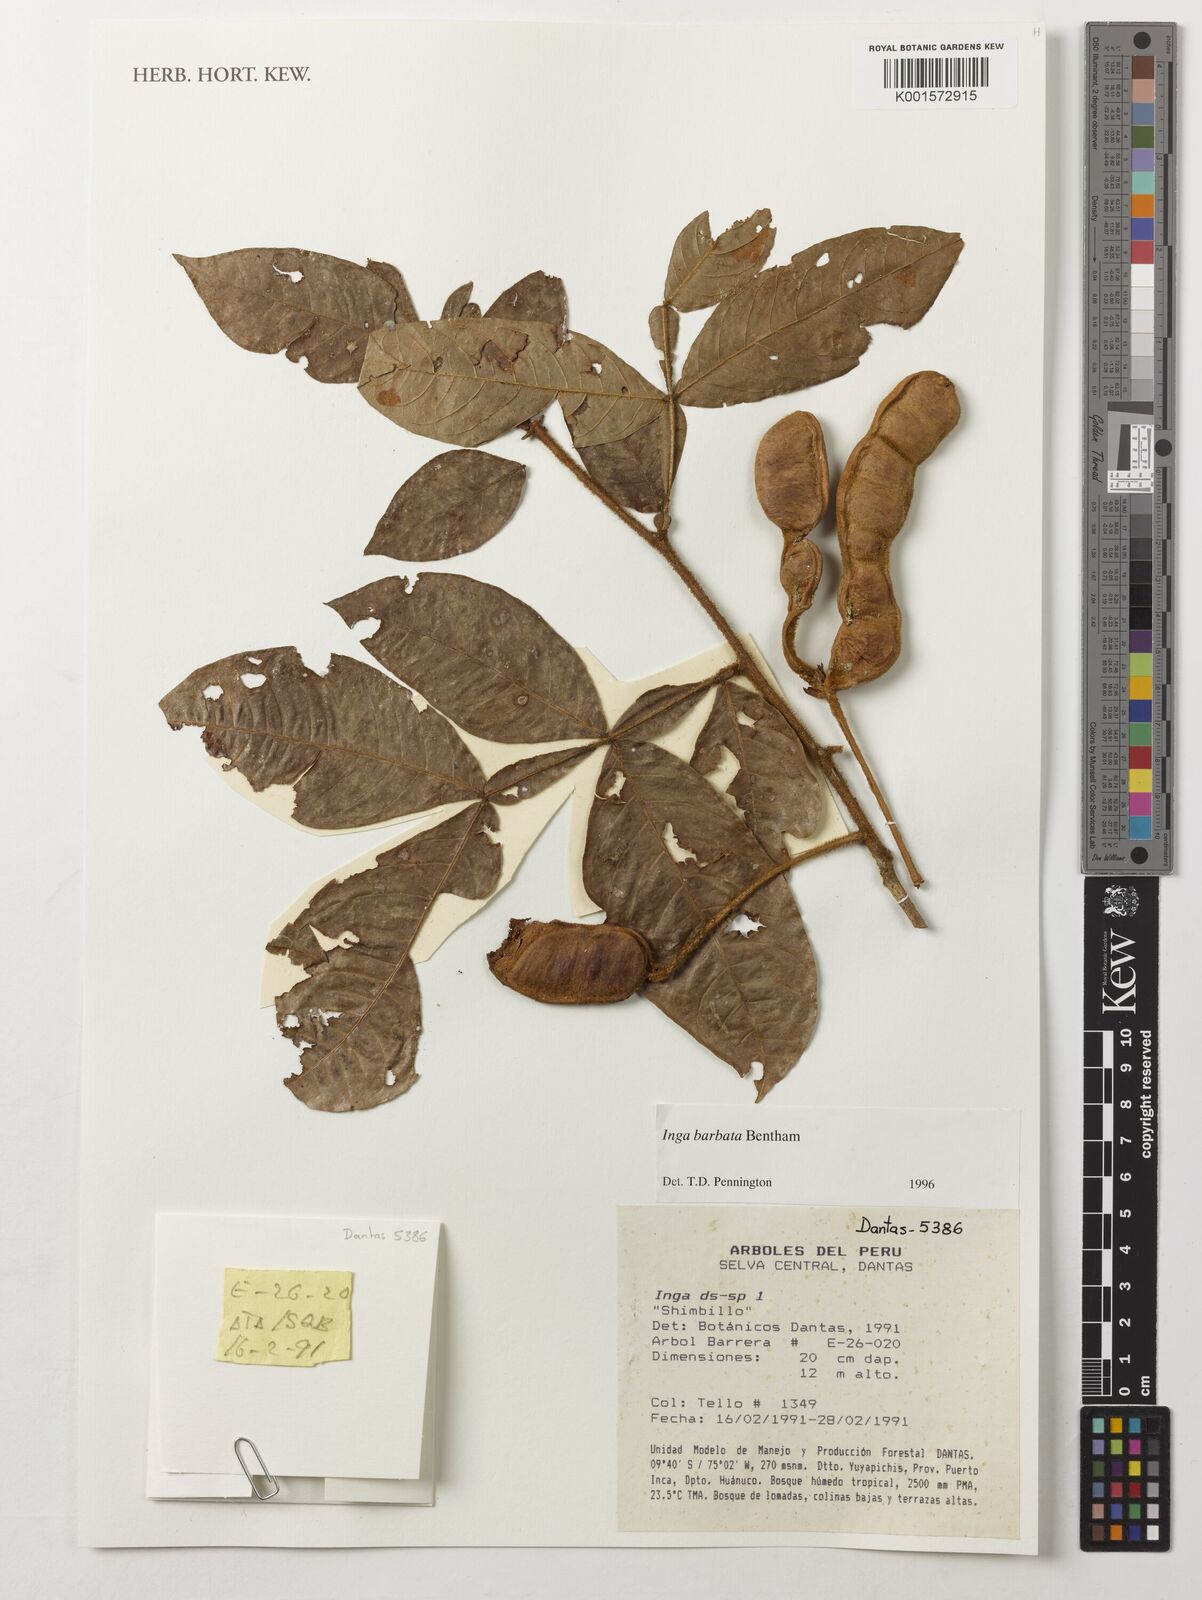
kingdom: Plantae
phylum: Tracheophyta
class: Magnoliopsida
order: Fabales
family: Fabaceae
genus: Inga
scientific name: Inga barbata
